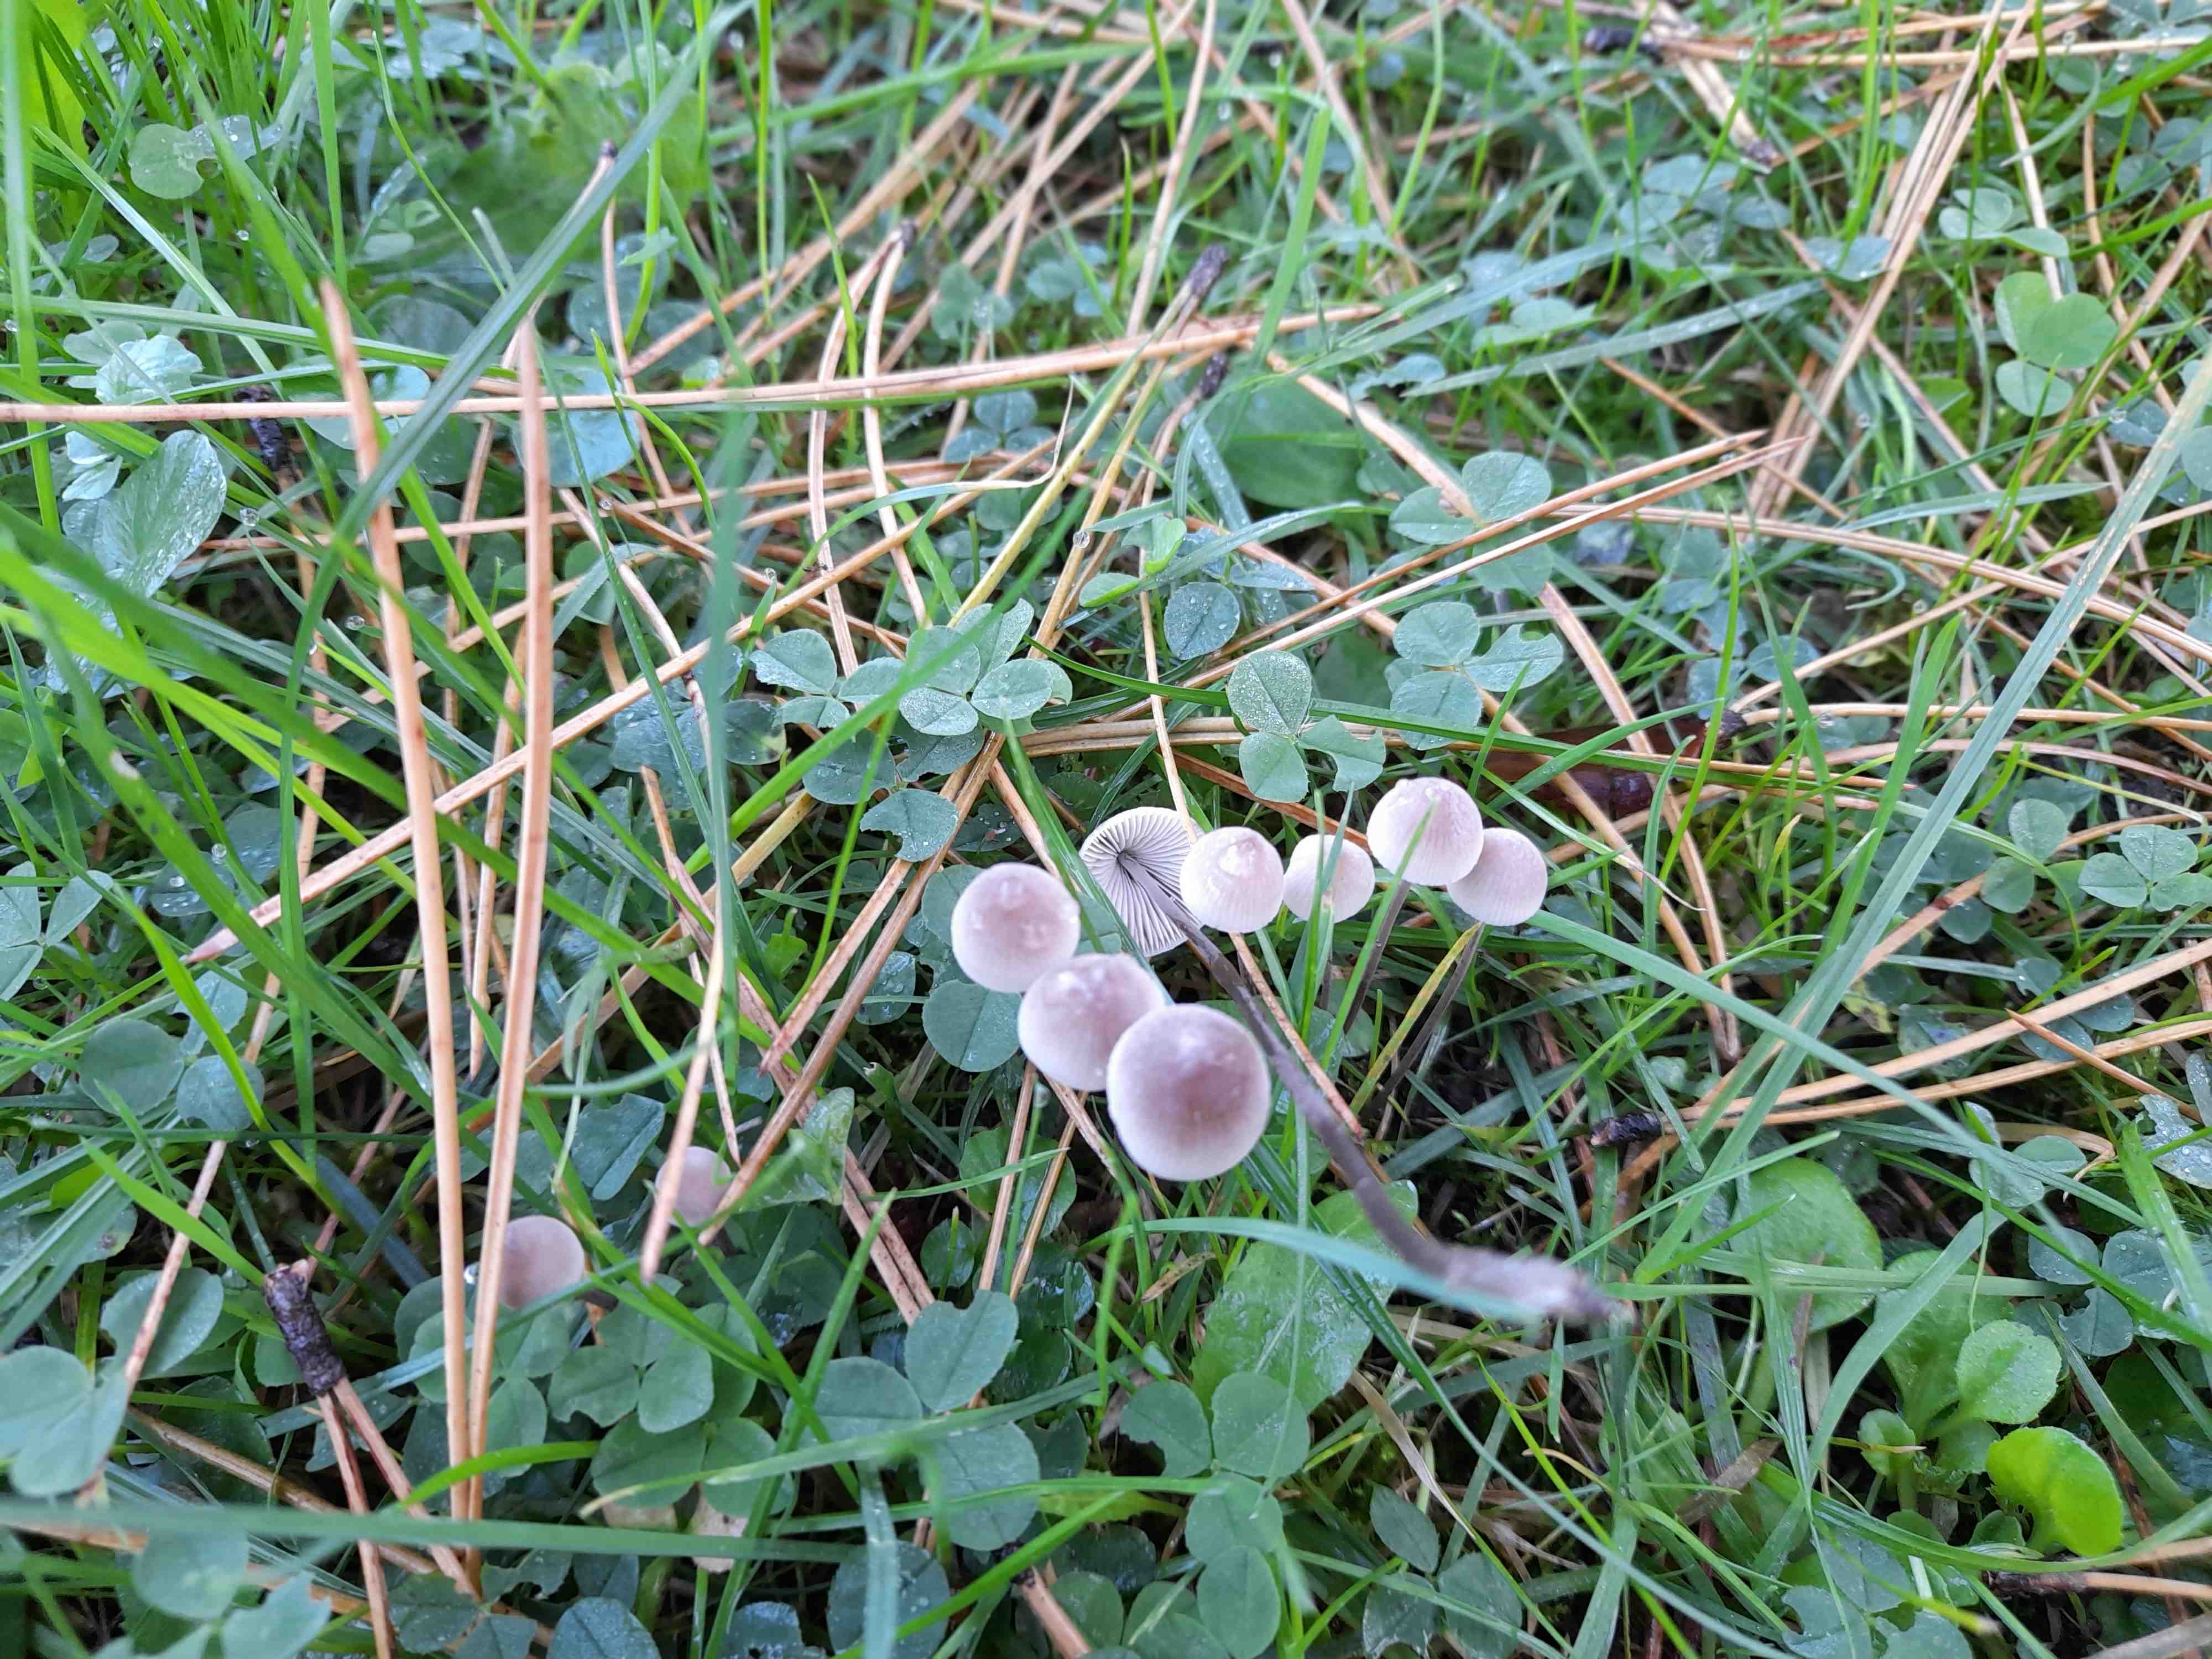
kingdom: Fungi
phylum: Basidiomycota
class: Agaricomycetes
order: Agaricales
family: Mycenaceae
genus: Mycena
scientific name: Mycena
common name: huesvamp
